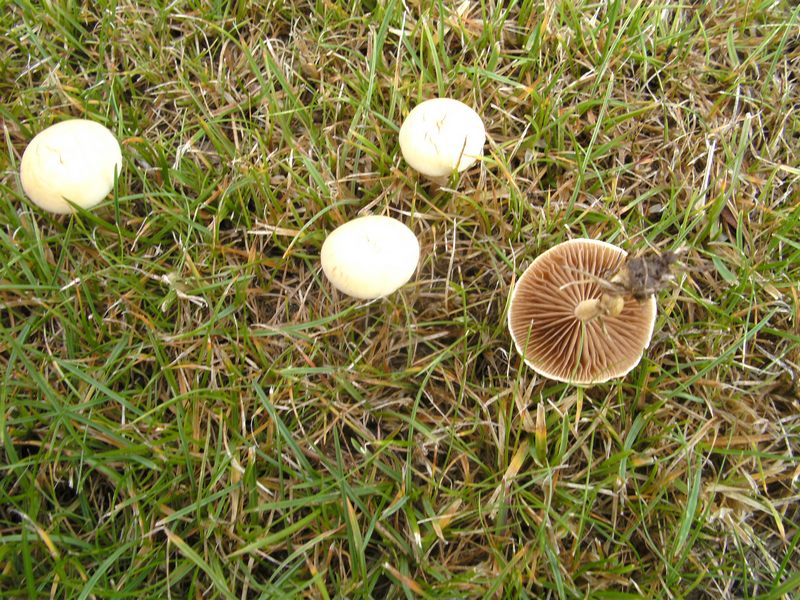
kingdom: Fungi
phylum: Basidiomycota
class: Agaricomycetes
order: Agaricales
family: Strophariaceae
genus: Agrocybe
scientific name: Agrocybe pediades
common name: almindelig agerhat
